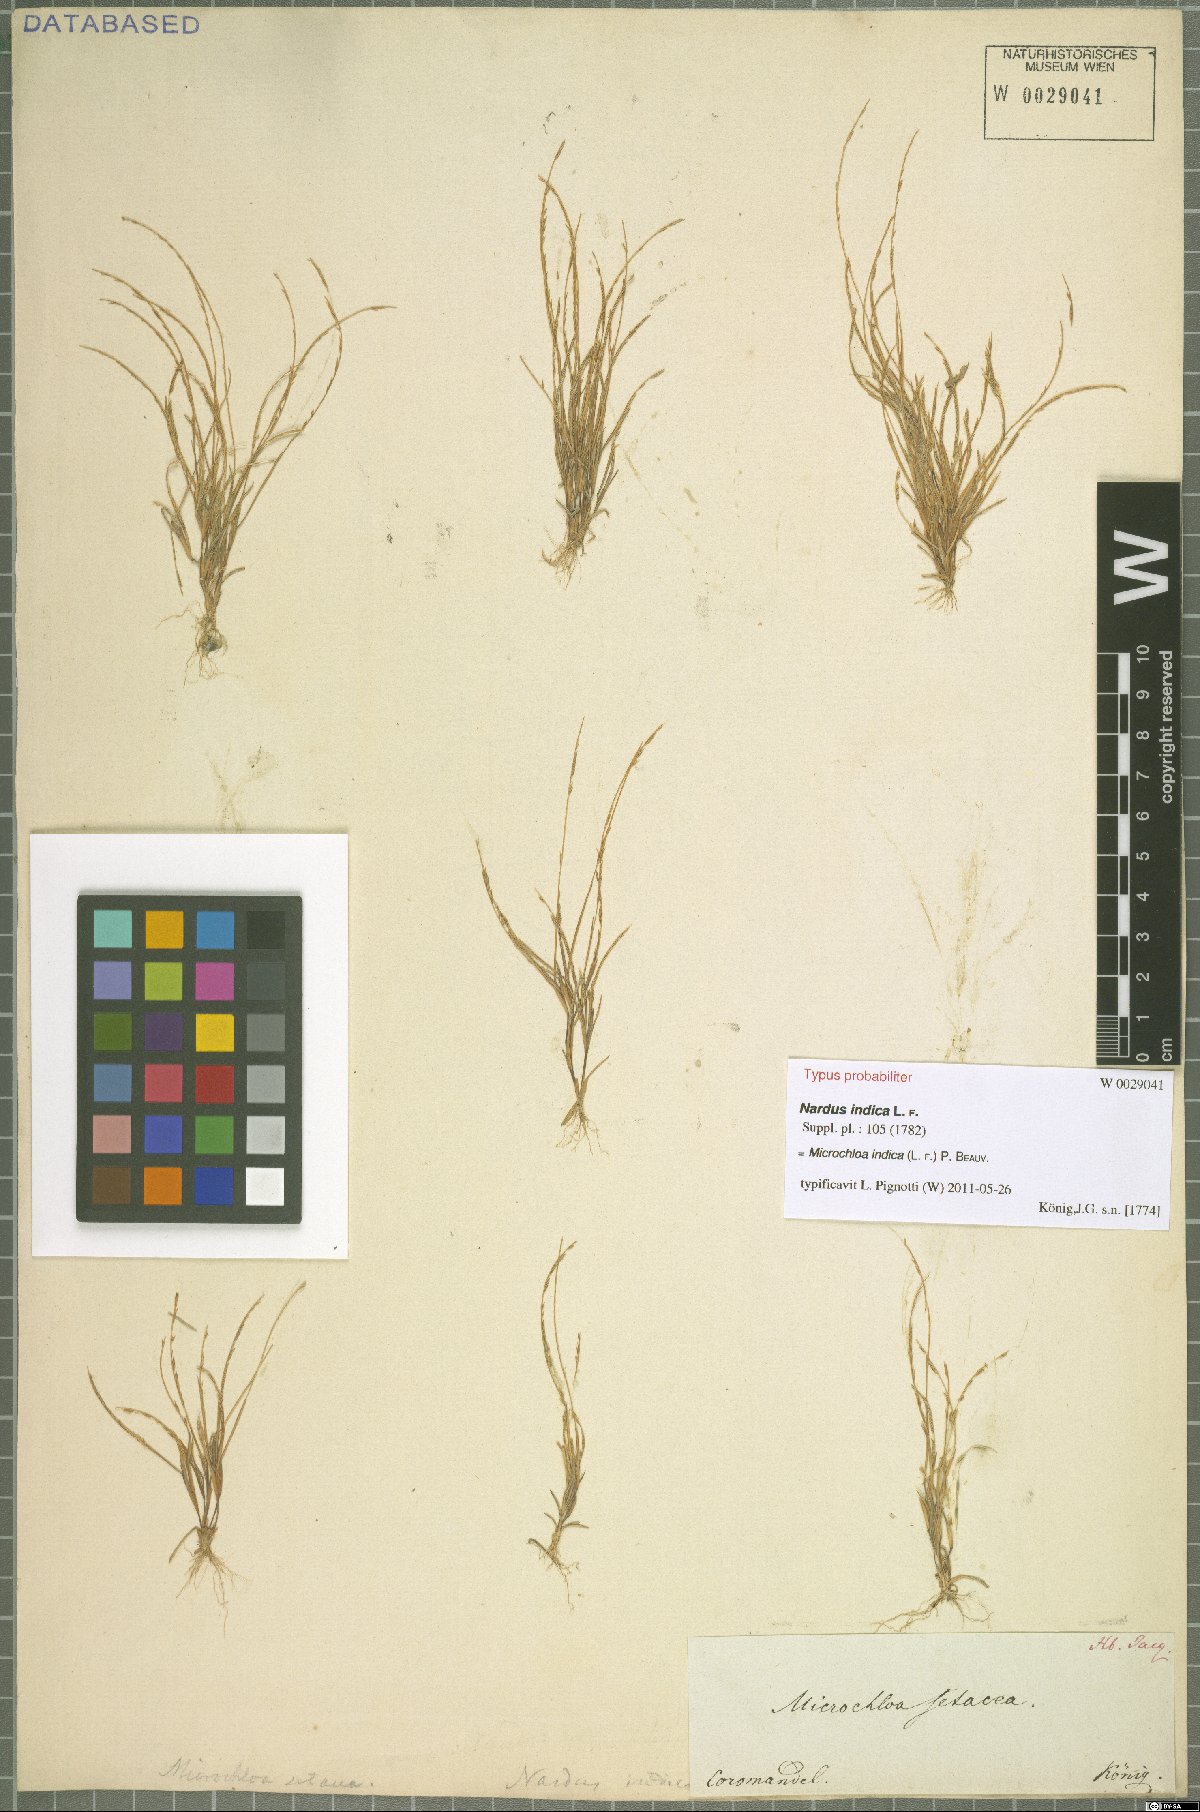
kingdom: Plantae
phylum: Tracheophyta
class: Liliopsida
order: Poales
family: Poaceae
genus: Microchloa
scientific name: Microchloa indica
